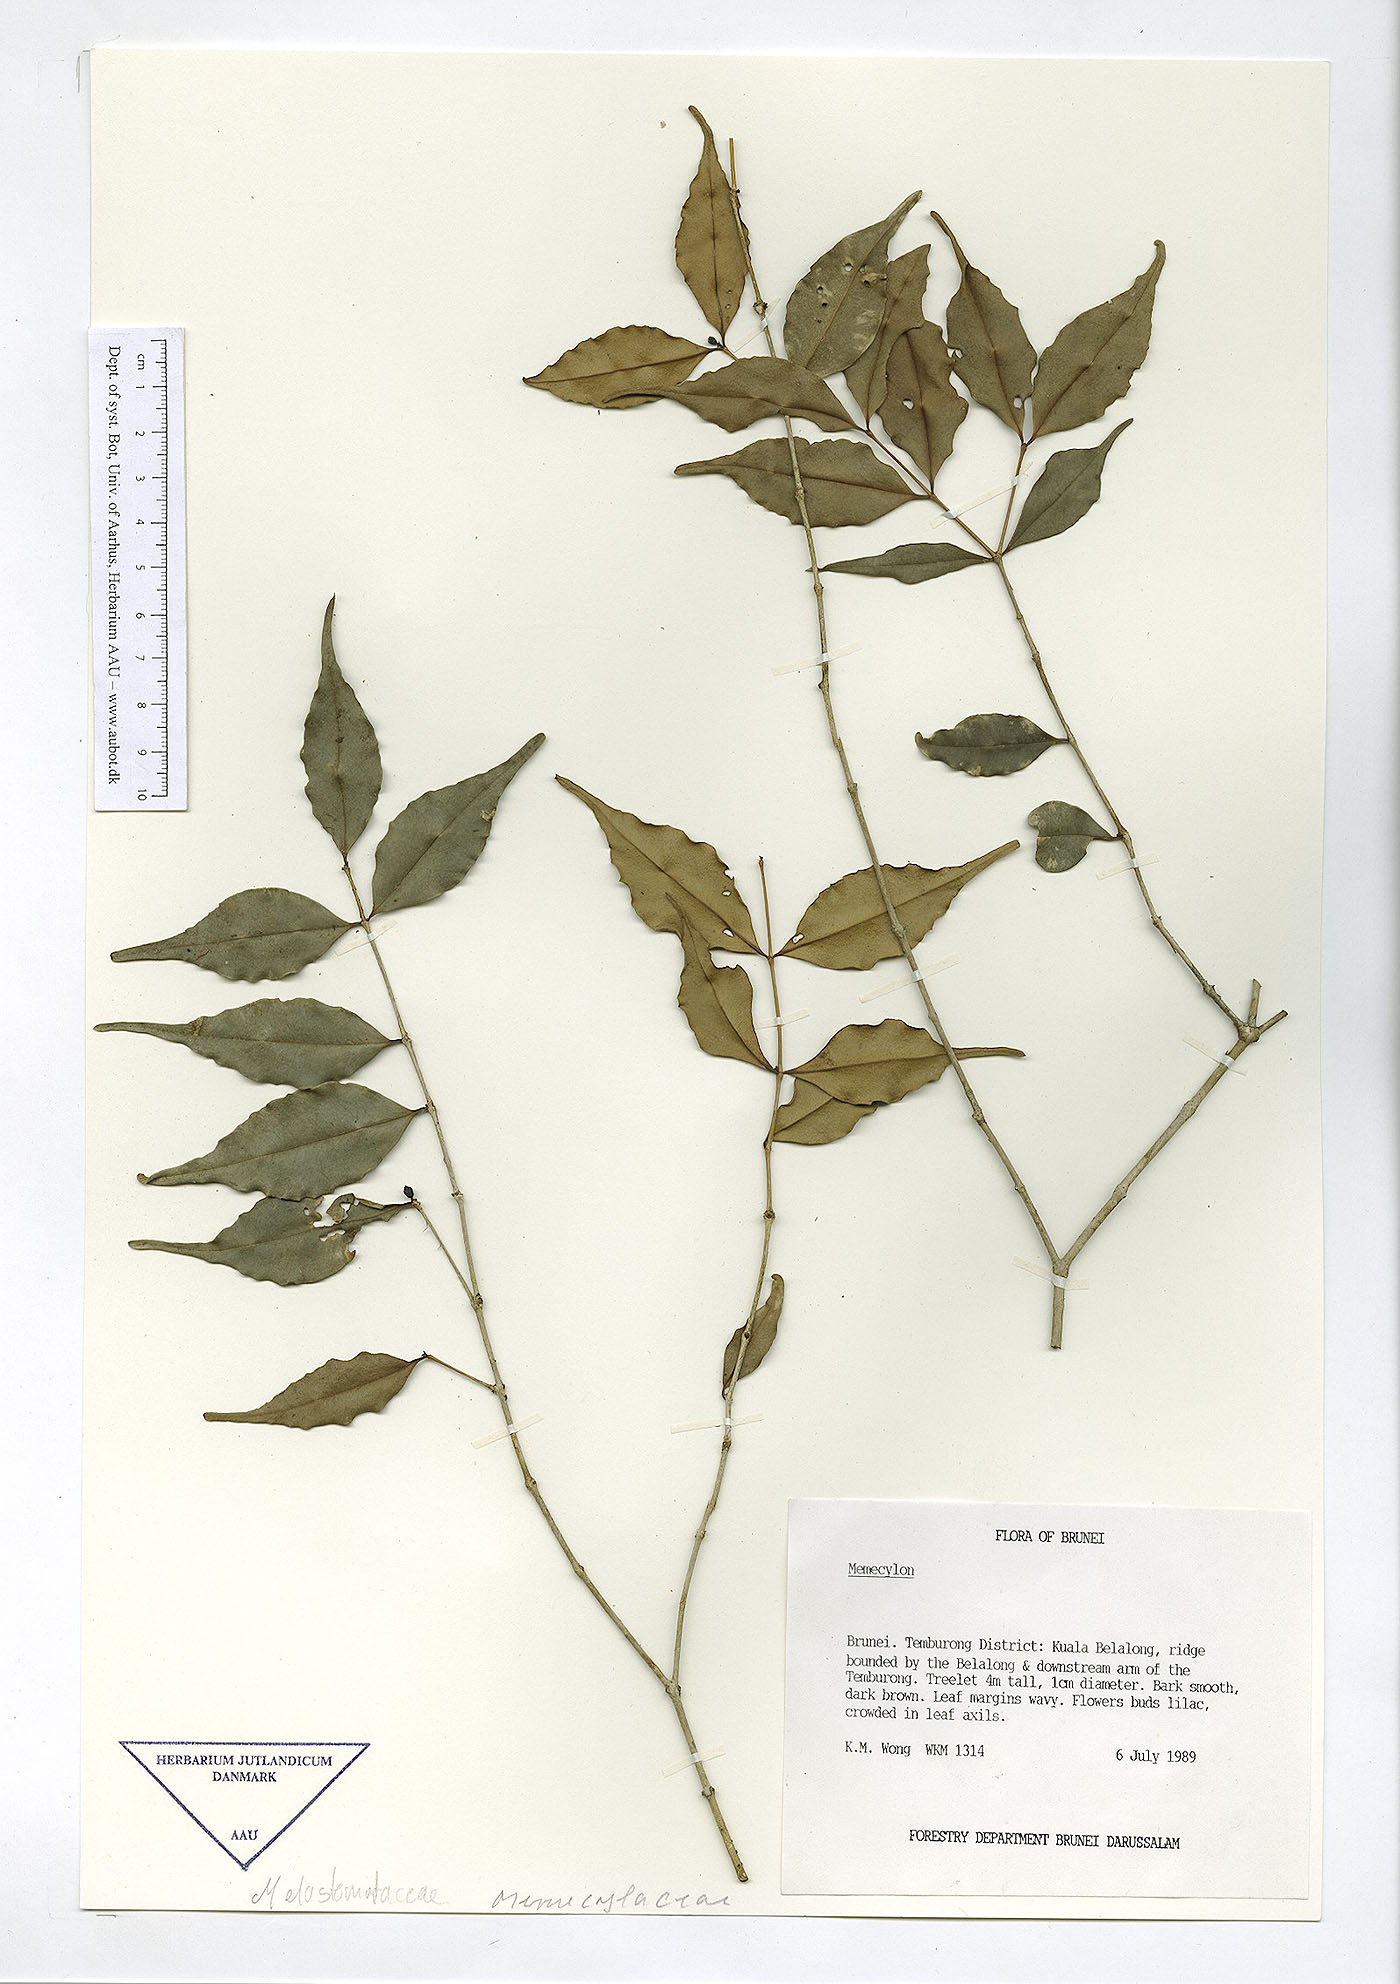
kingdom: Plantae
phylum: Tracheophyta
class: Magnoliopsida
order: Myrtales
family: Melastomataceae
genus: Memecylon
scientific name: Memecylon
